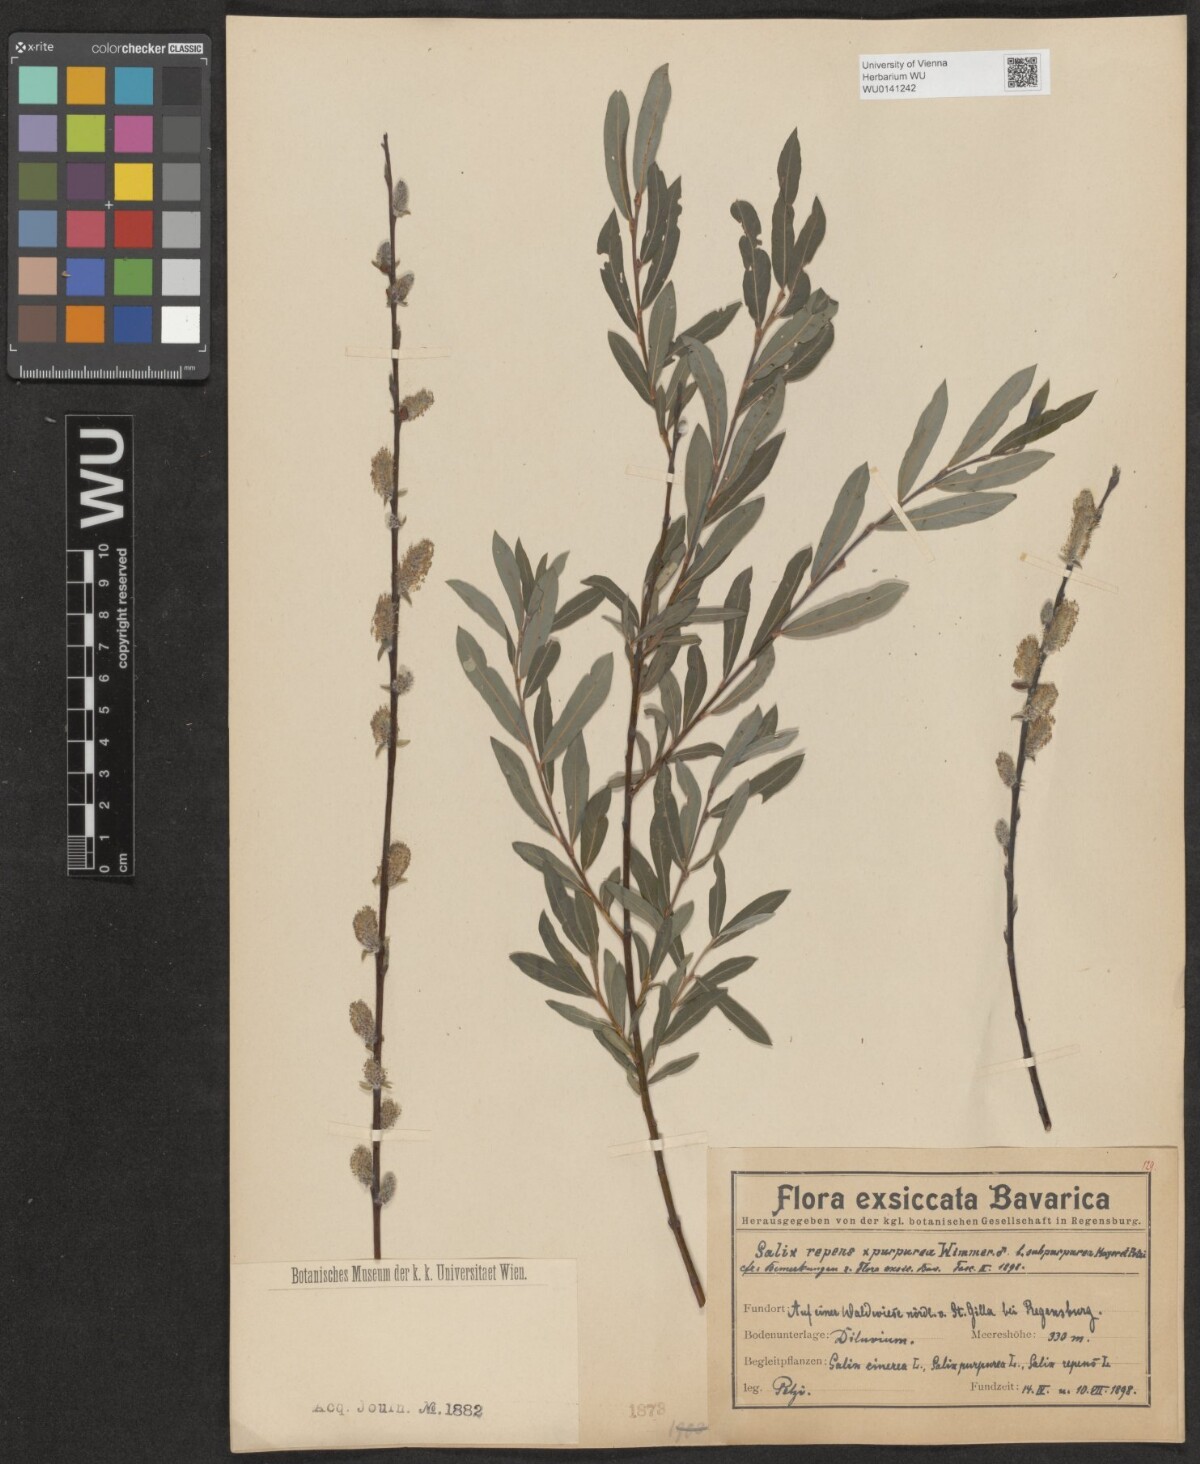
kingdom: Plantae
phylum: Tracheophyta
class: Magnoliopsida
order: Malpighiales
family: Salicaceae
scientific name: Salicaceae
